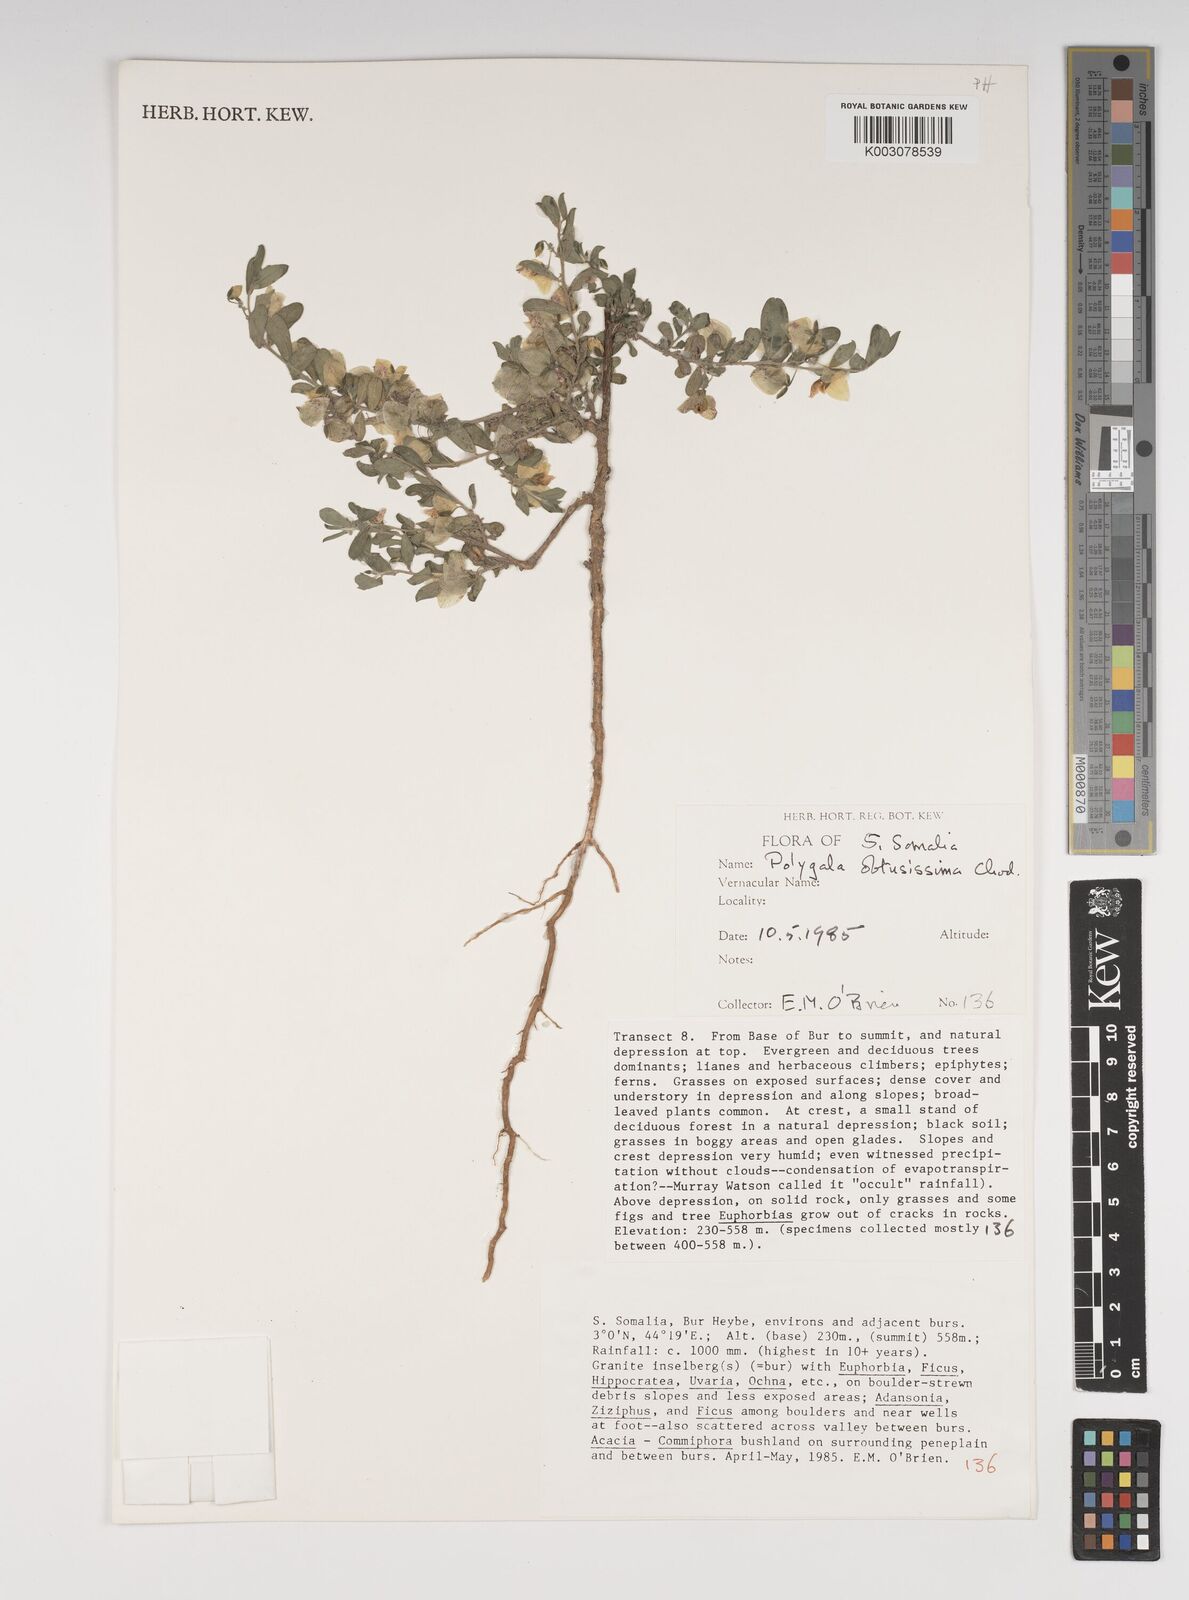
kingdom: Plantae
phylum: Tracheophyta
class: Magnoliopsida
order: Fabales
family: Polygalaceae
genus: Polygala
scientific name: Polygala senensis
